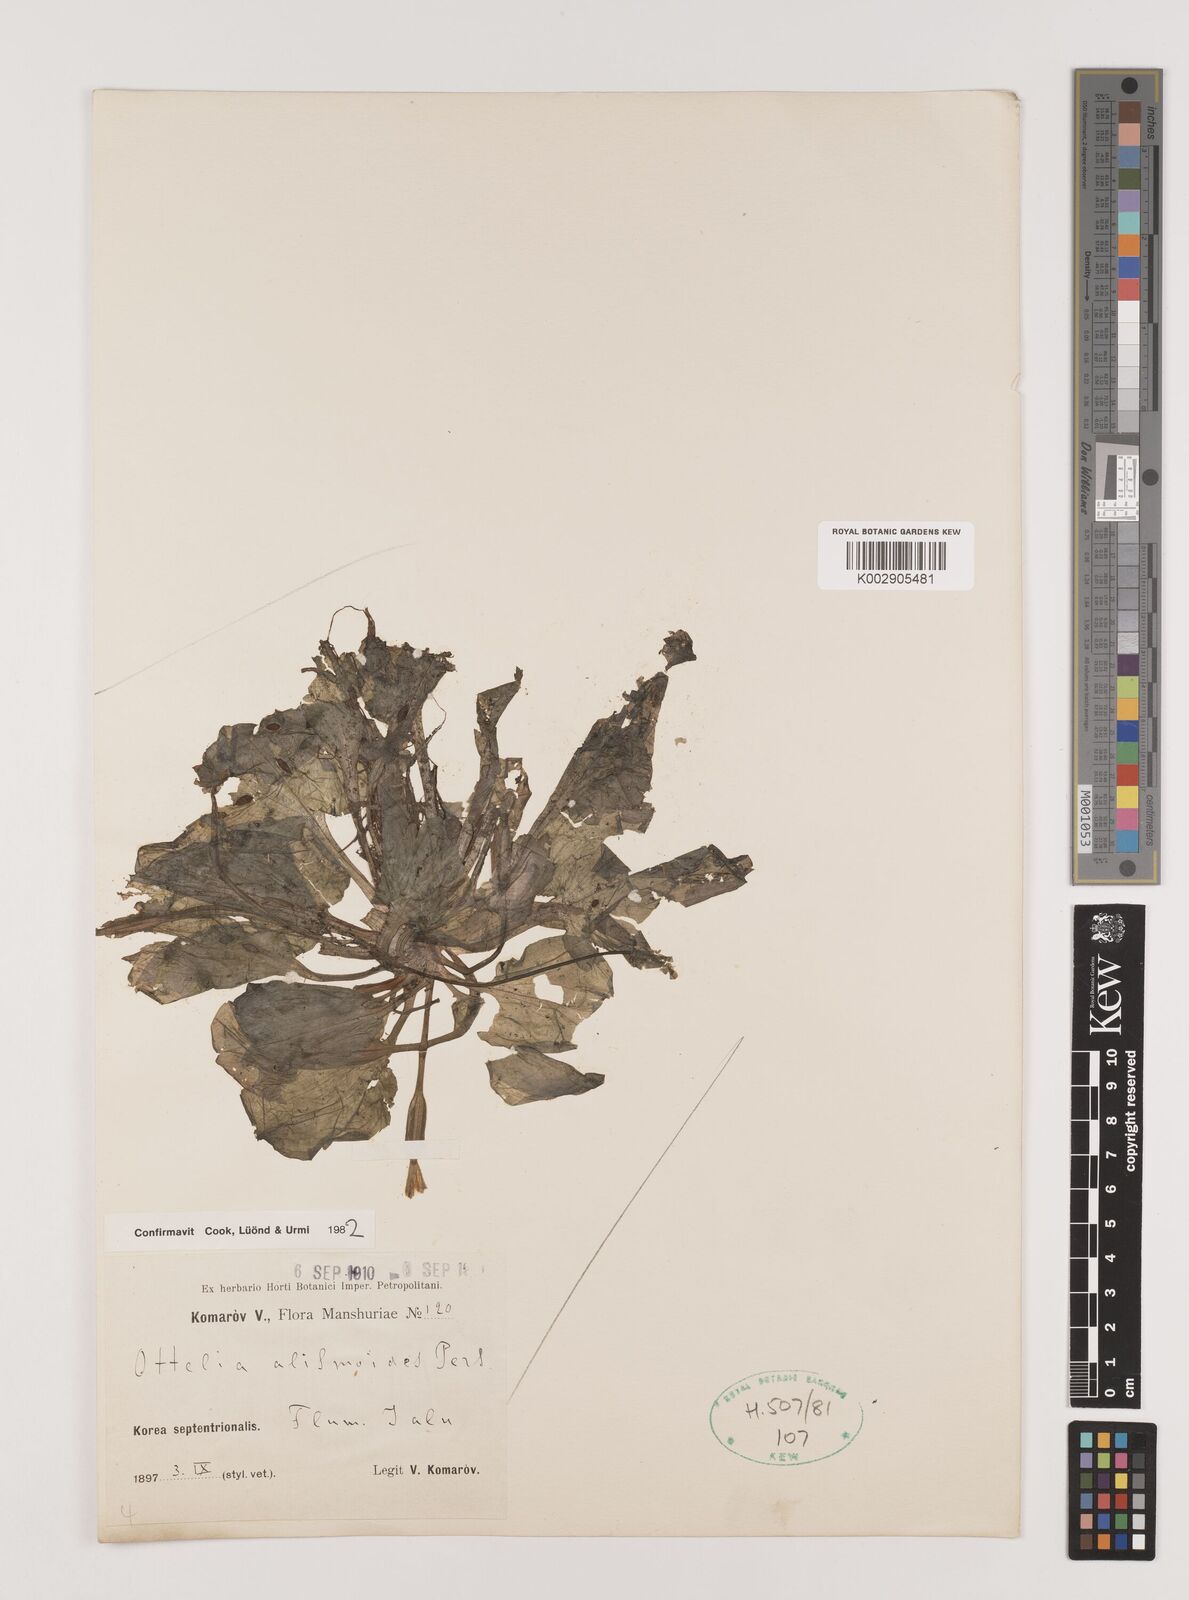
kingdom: Plantae
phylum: Tracheophyta
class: Liliopsida
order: Alismatales
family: Hydrocharitaceae
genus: Ottelia
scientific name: Ottelia alismoides
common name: Duck-lettuce
